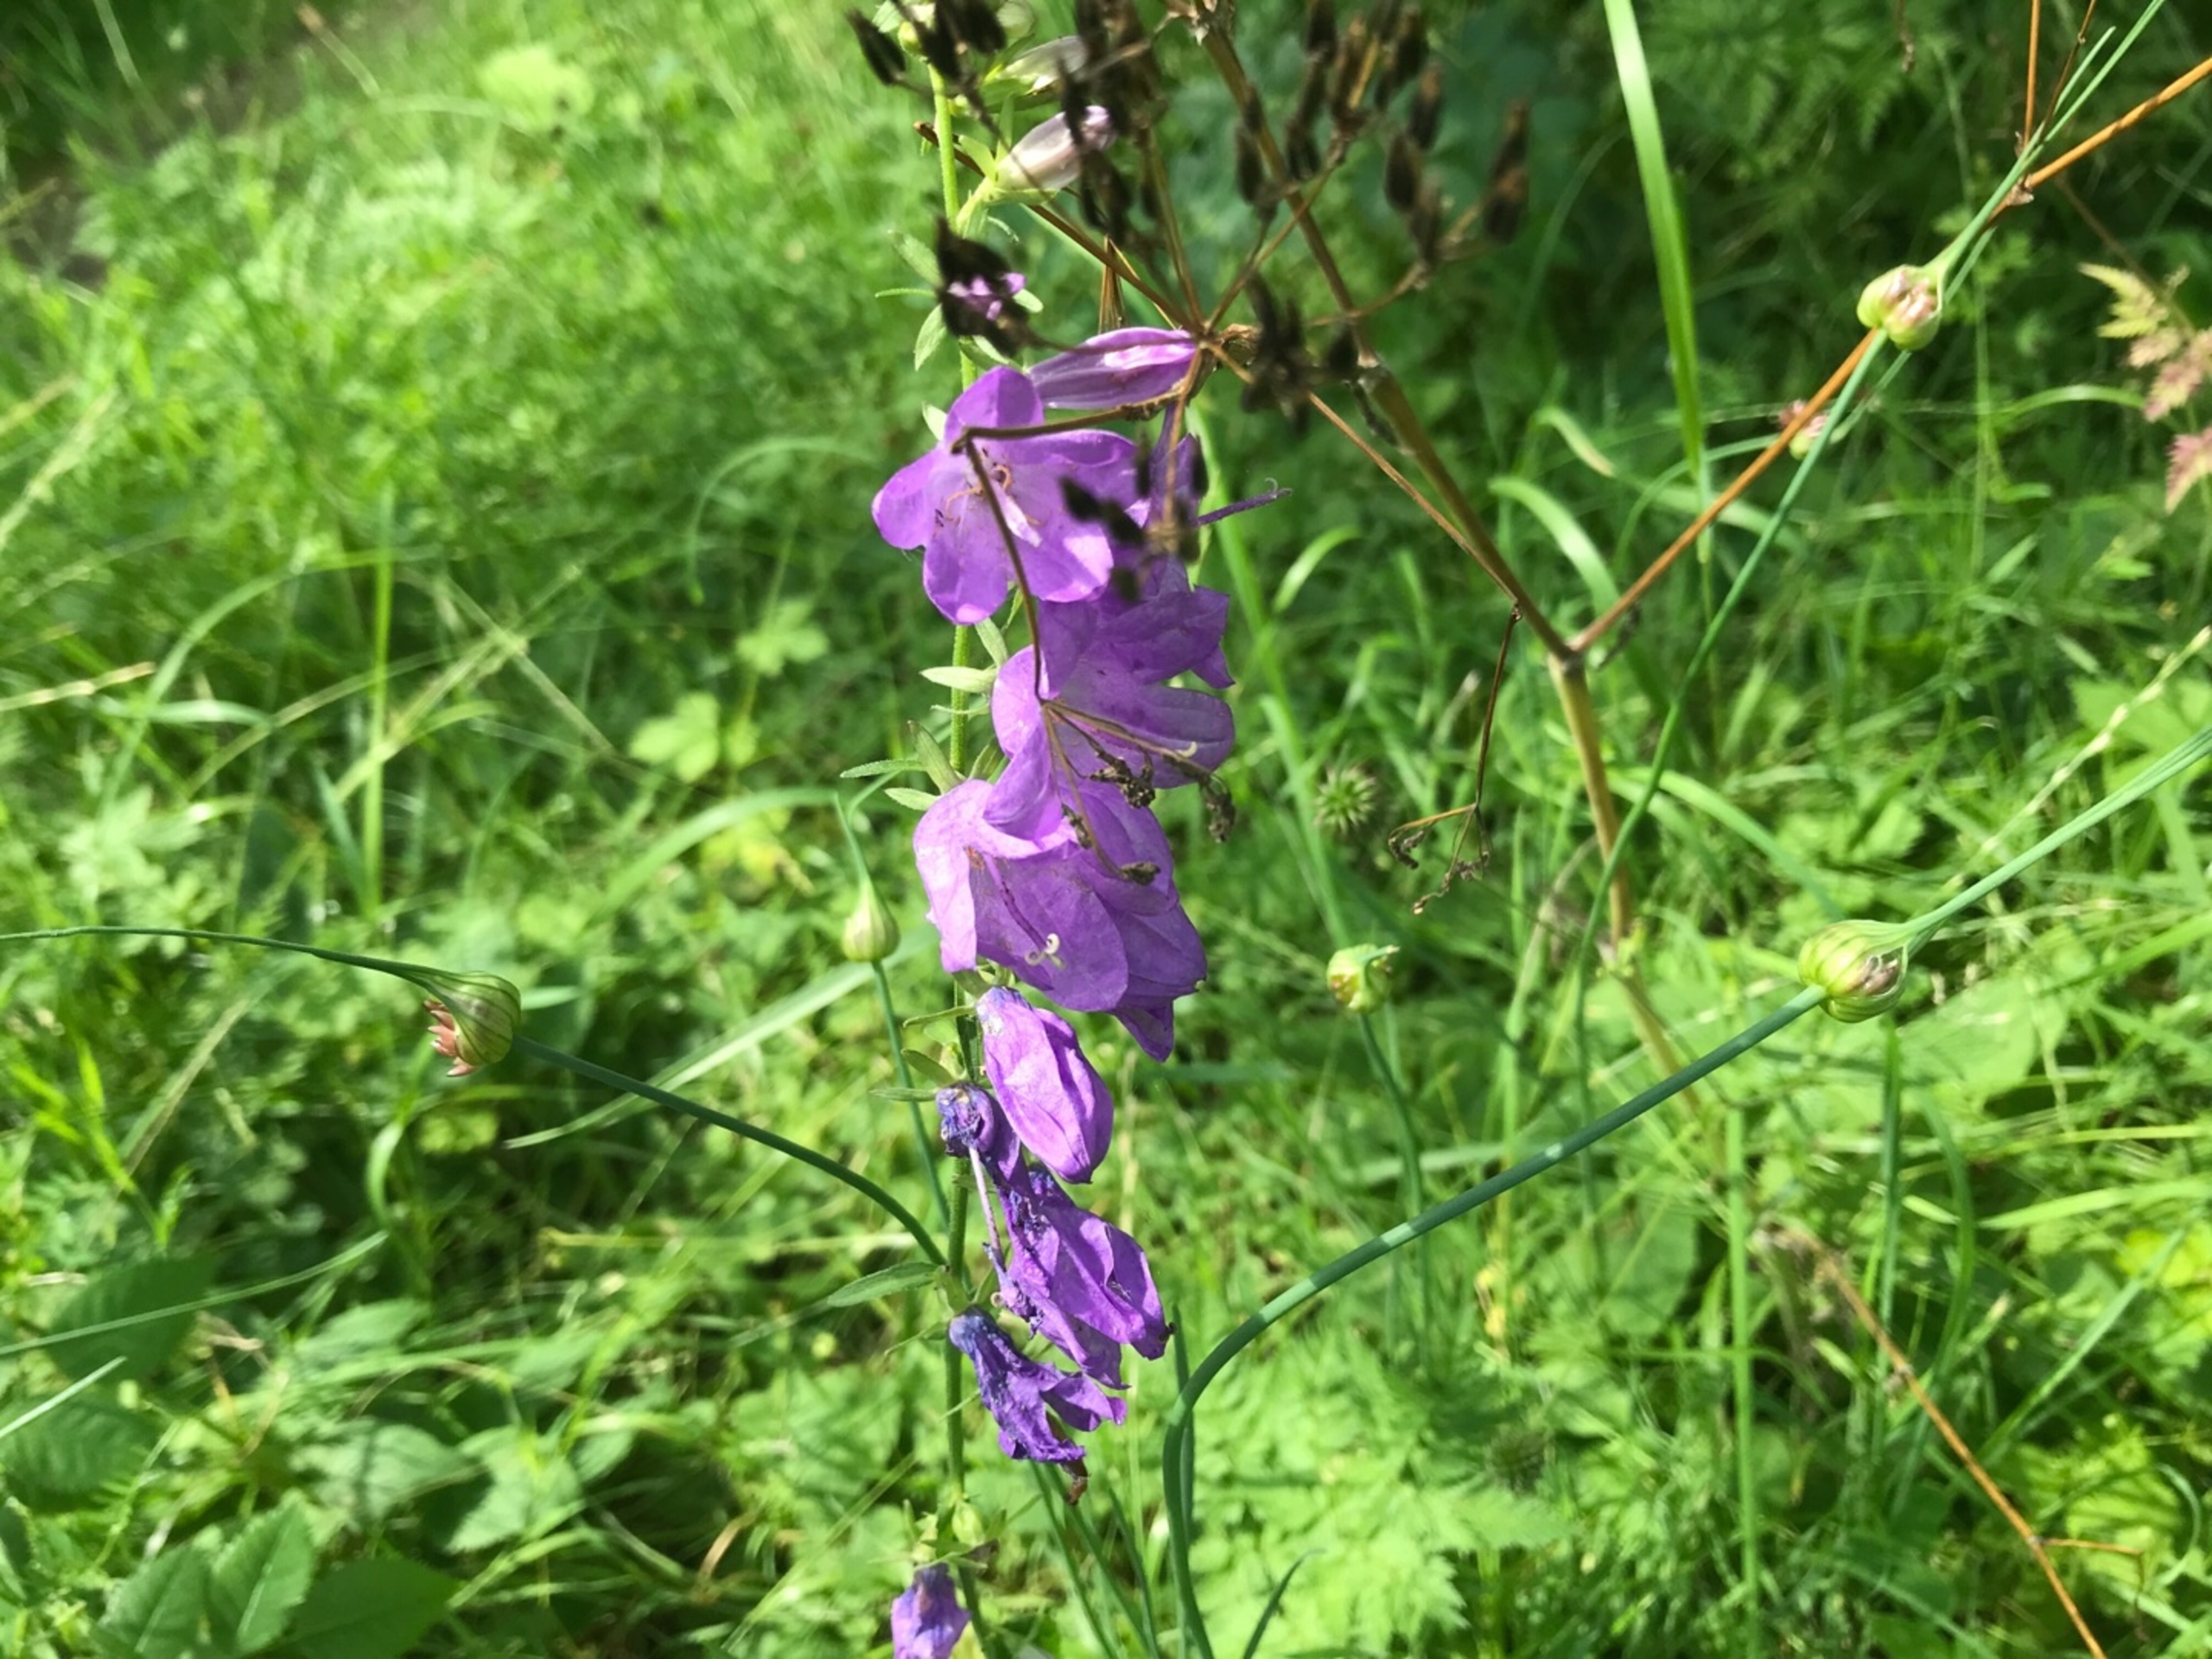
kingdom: Plantae
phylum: Tracheophyta
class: Magnoliopsida
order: Asterales
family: Campanulaceae
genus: Campanula
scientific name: Campanula rapunculoides
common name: Ensidig klokke
